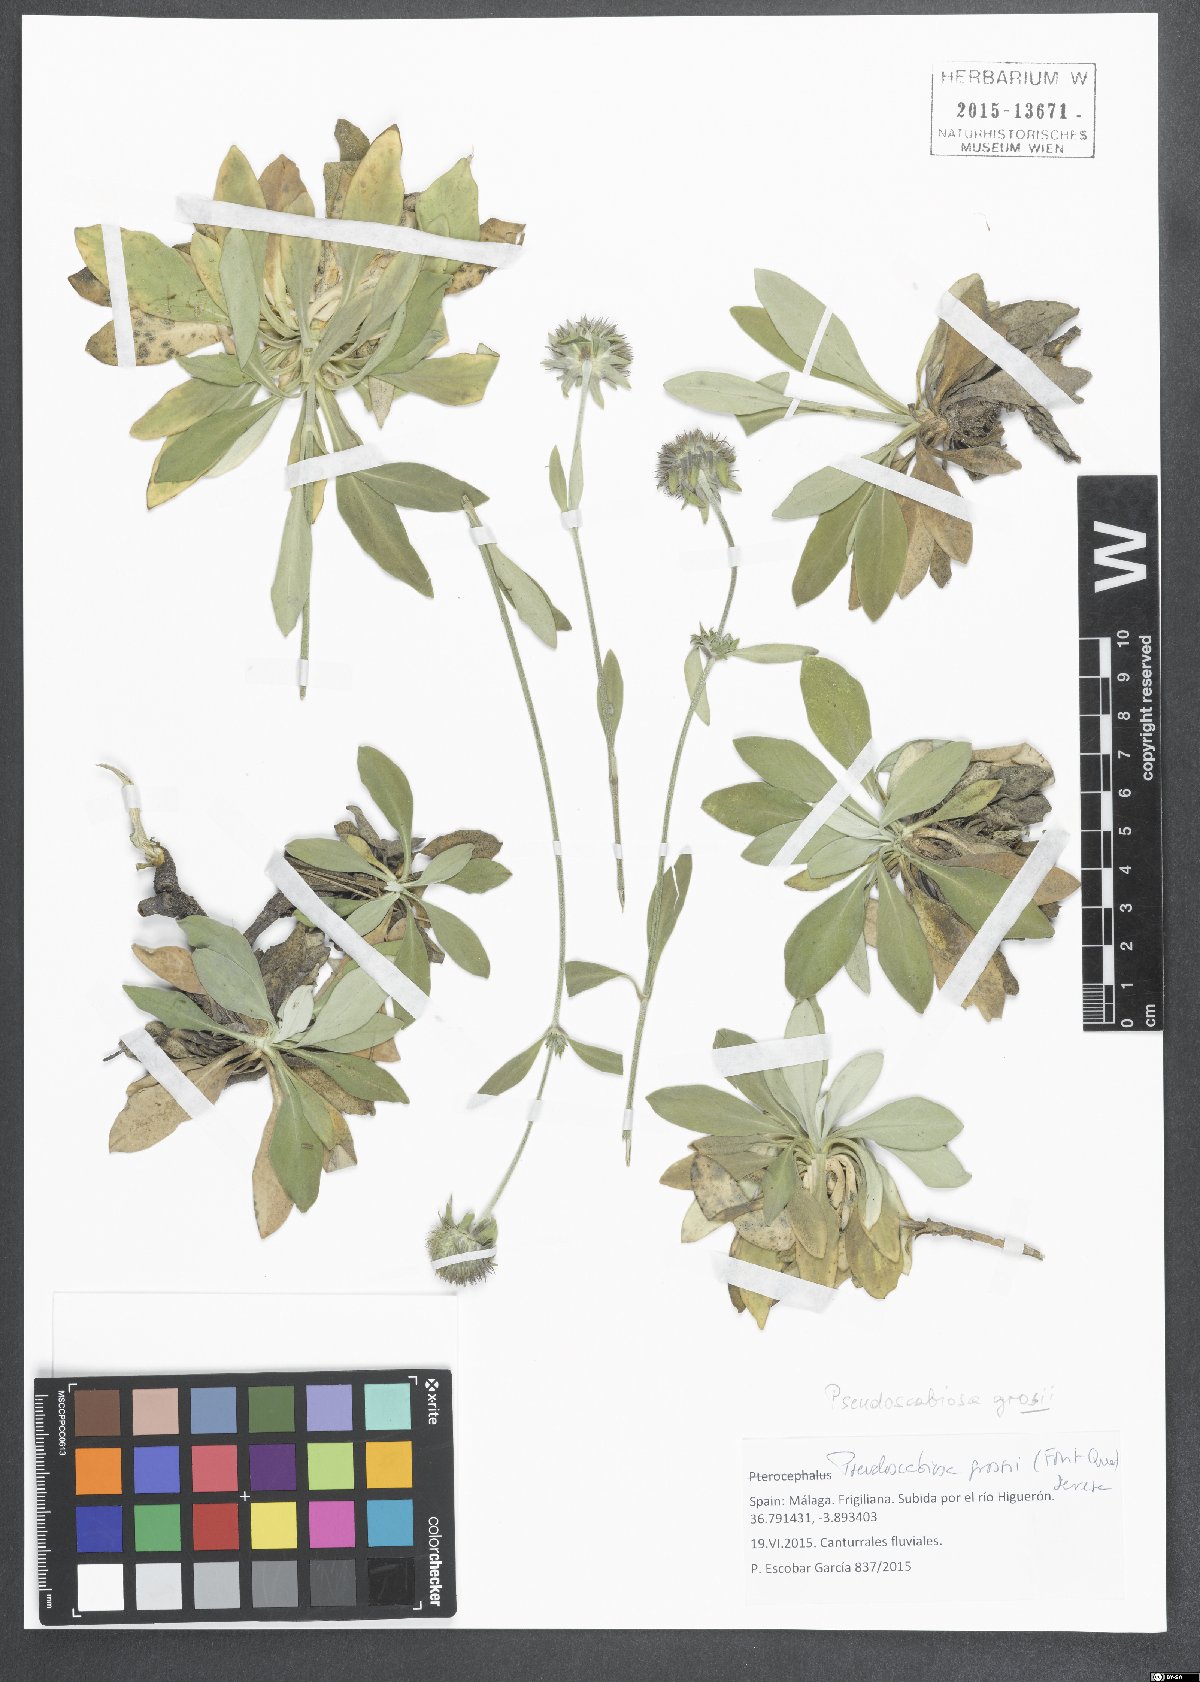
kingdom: Plantae
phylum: Tracheophyta
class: Magnoliopsida
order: Dipsacales
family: Caprifoliaceae
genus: Pseudoscabiosa
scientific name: Pseudoscabiosa grosii
